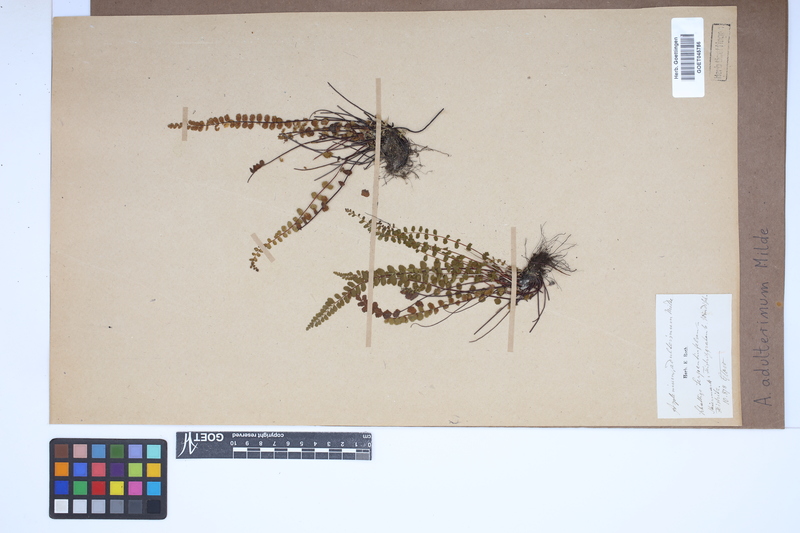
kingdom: Plantae
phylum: Tracheophyta
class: Polypodiopsida
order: Polypodiales
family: Aspleniaceae
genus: Asplenium
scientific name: Asplenium adulterinum
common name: Adulterated spleenwort
